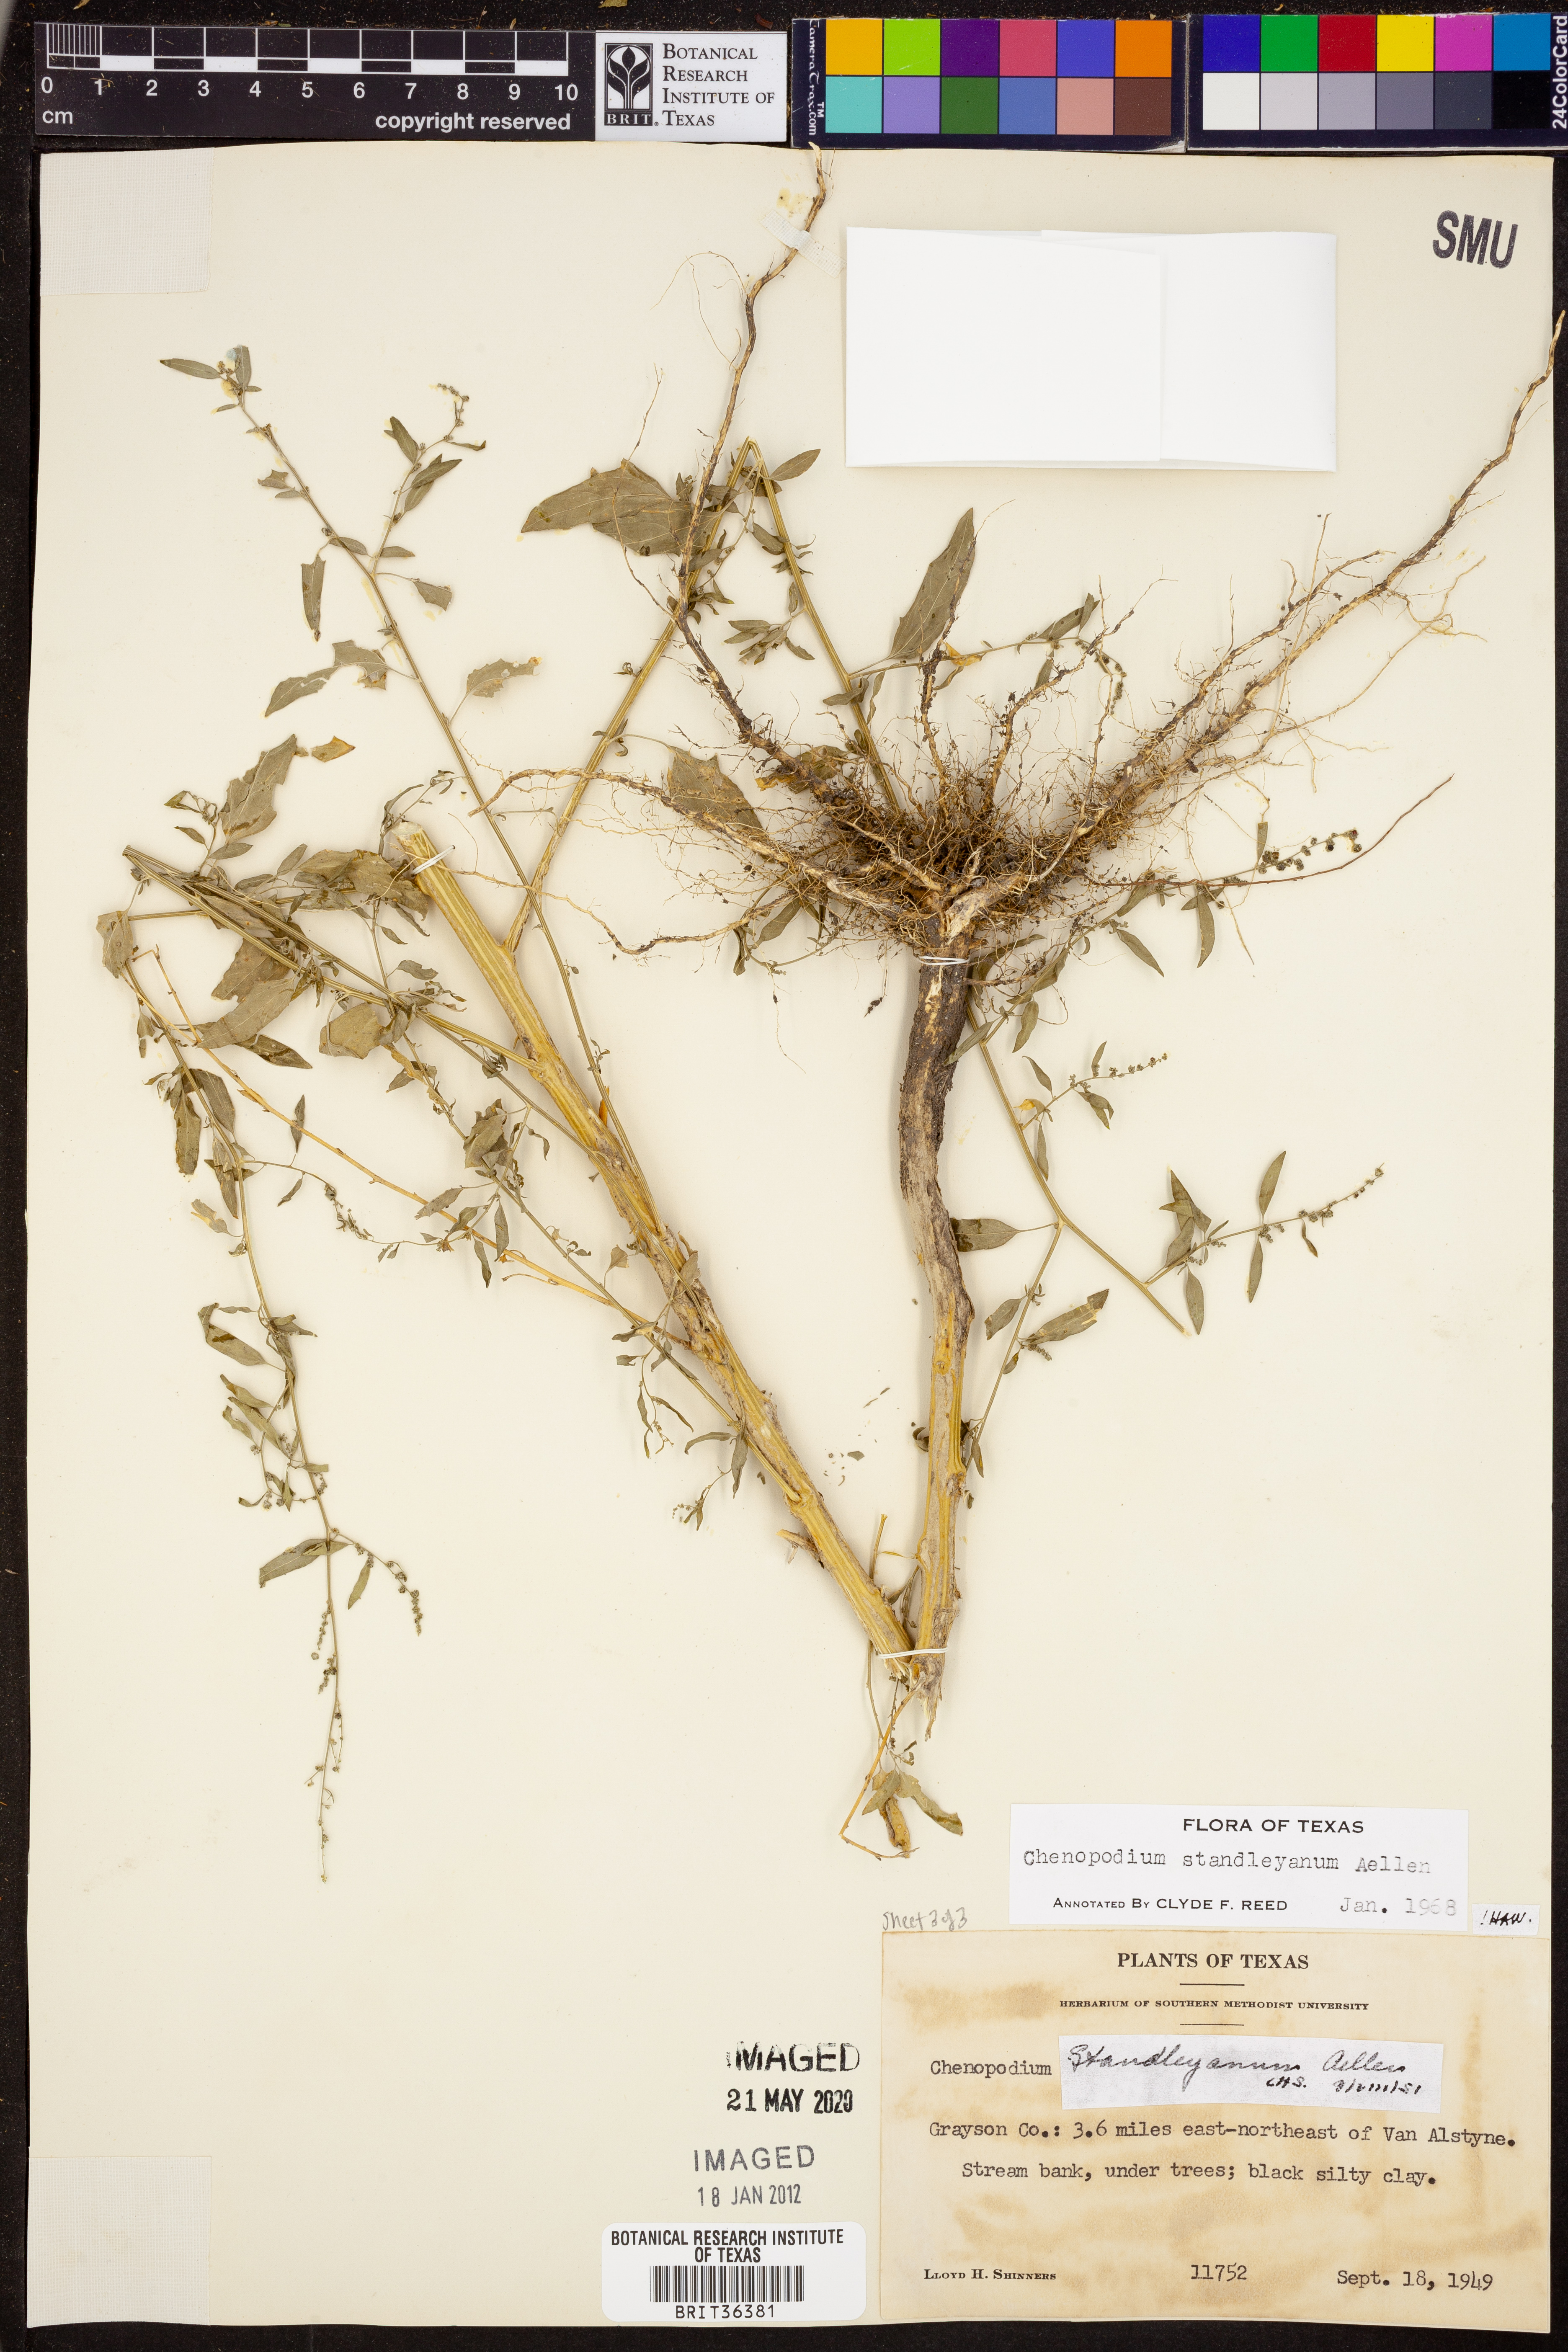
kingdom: Plantae
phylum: Tracheophyta
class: Magnoliopsida
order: Caryophyllales
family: Amaranthaceae
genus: Chenopodiastrum
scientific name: Chenopodiastrum standleyanum
